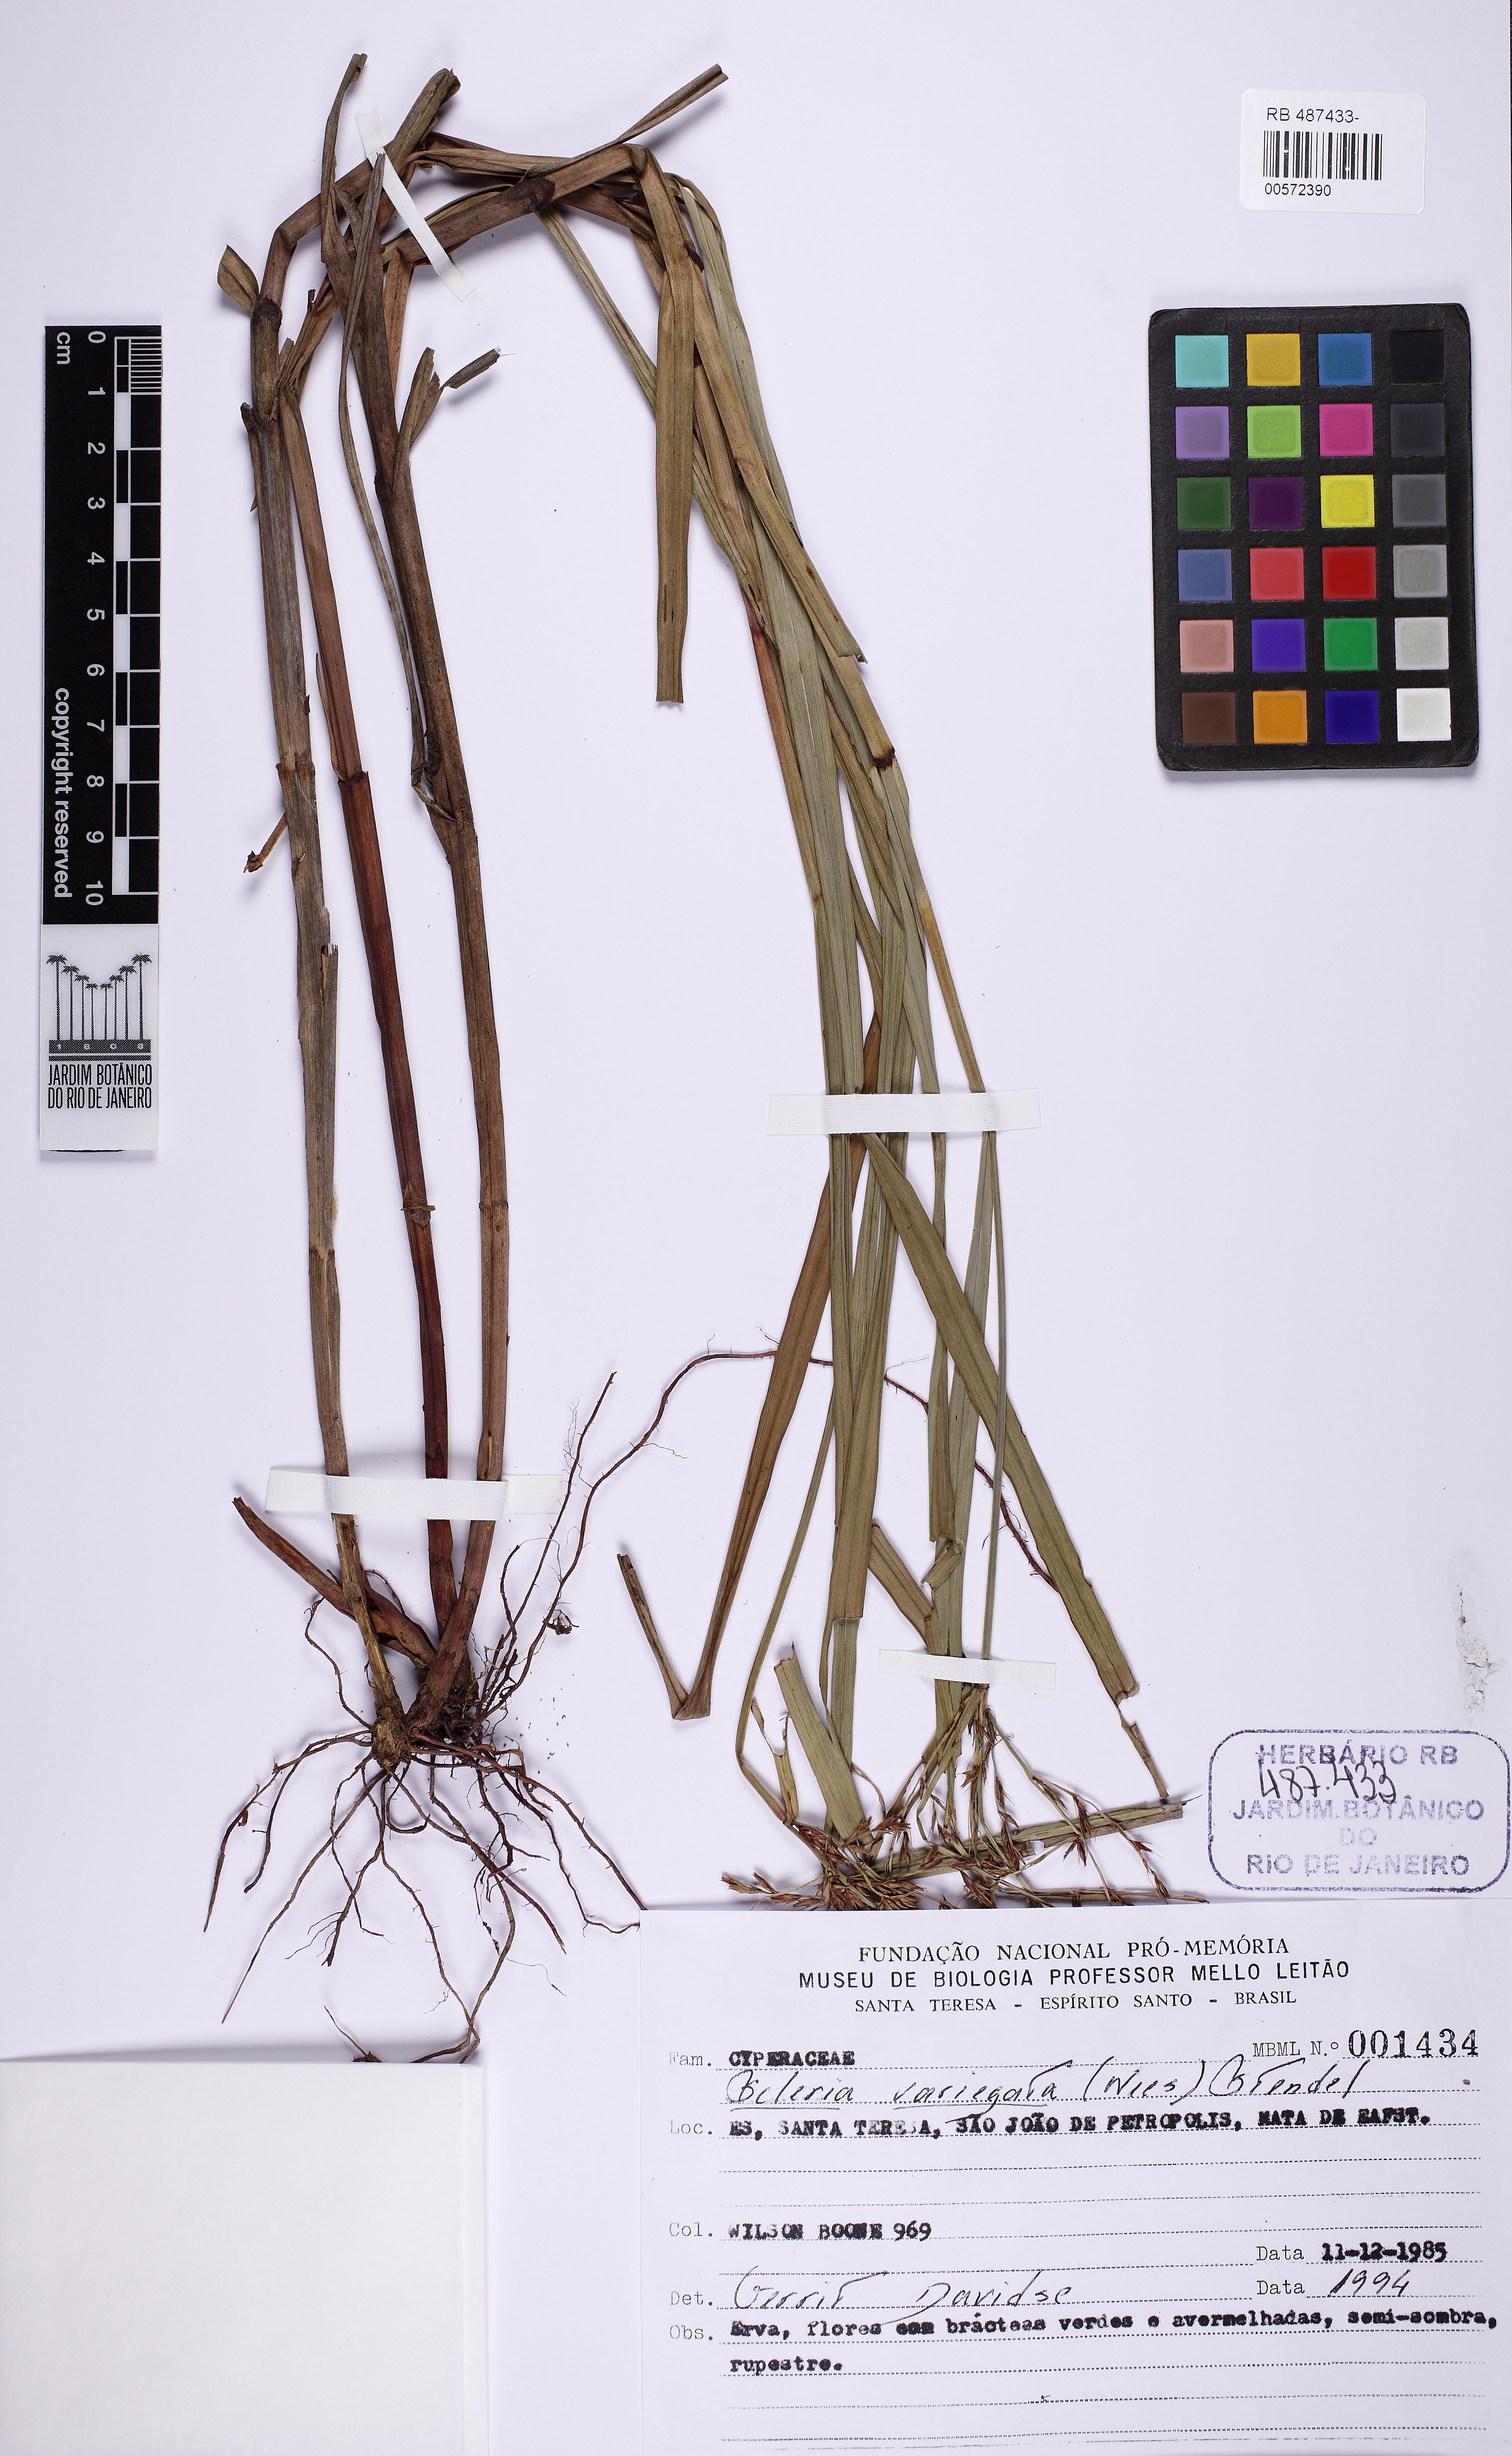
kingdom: Plantae
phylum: Tracheophyta
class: Liliopsida
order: Poales
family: Cyperaceae
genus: Scleria
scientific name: Scleria variegata
